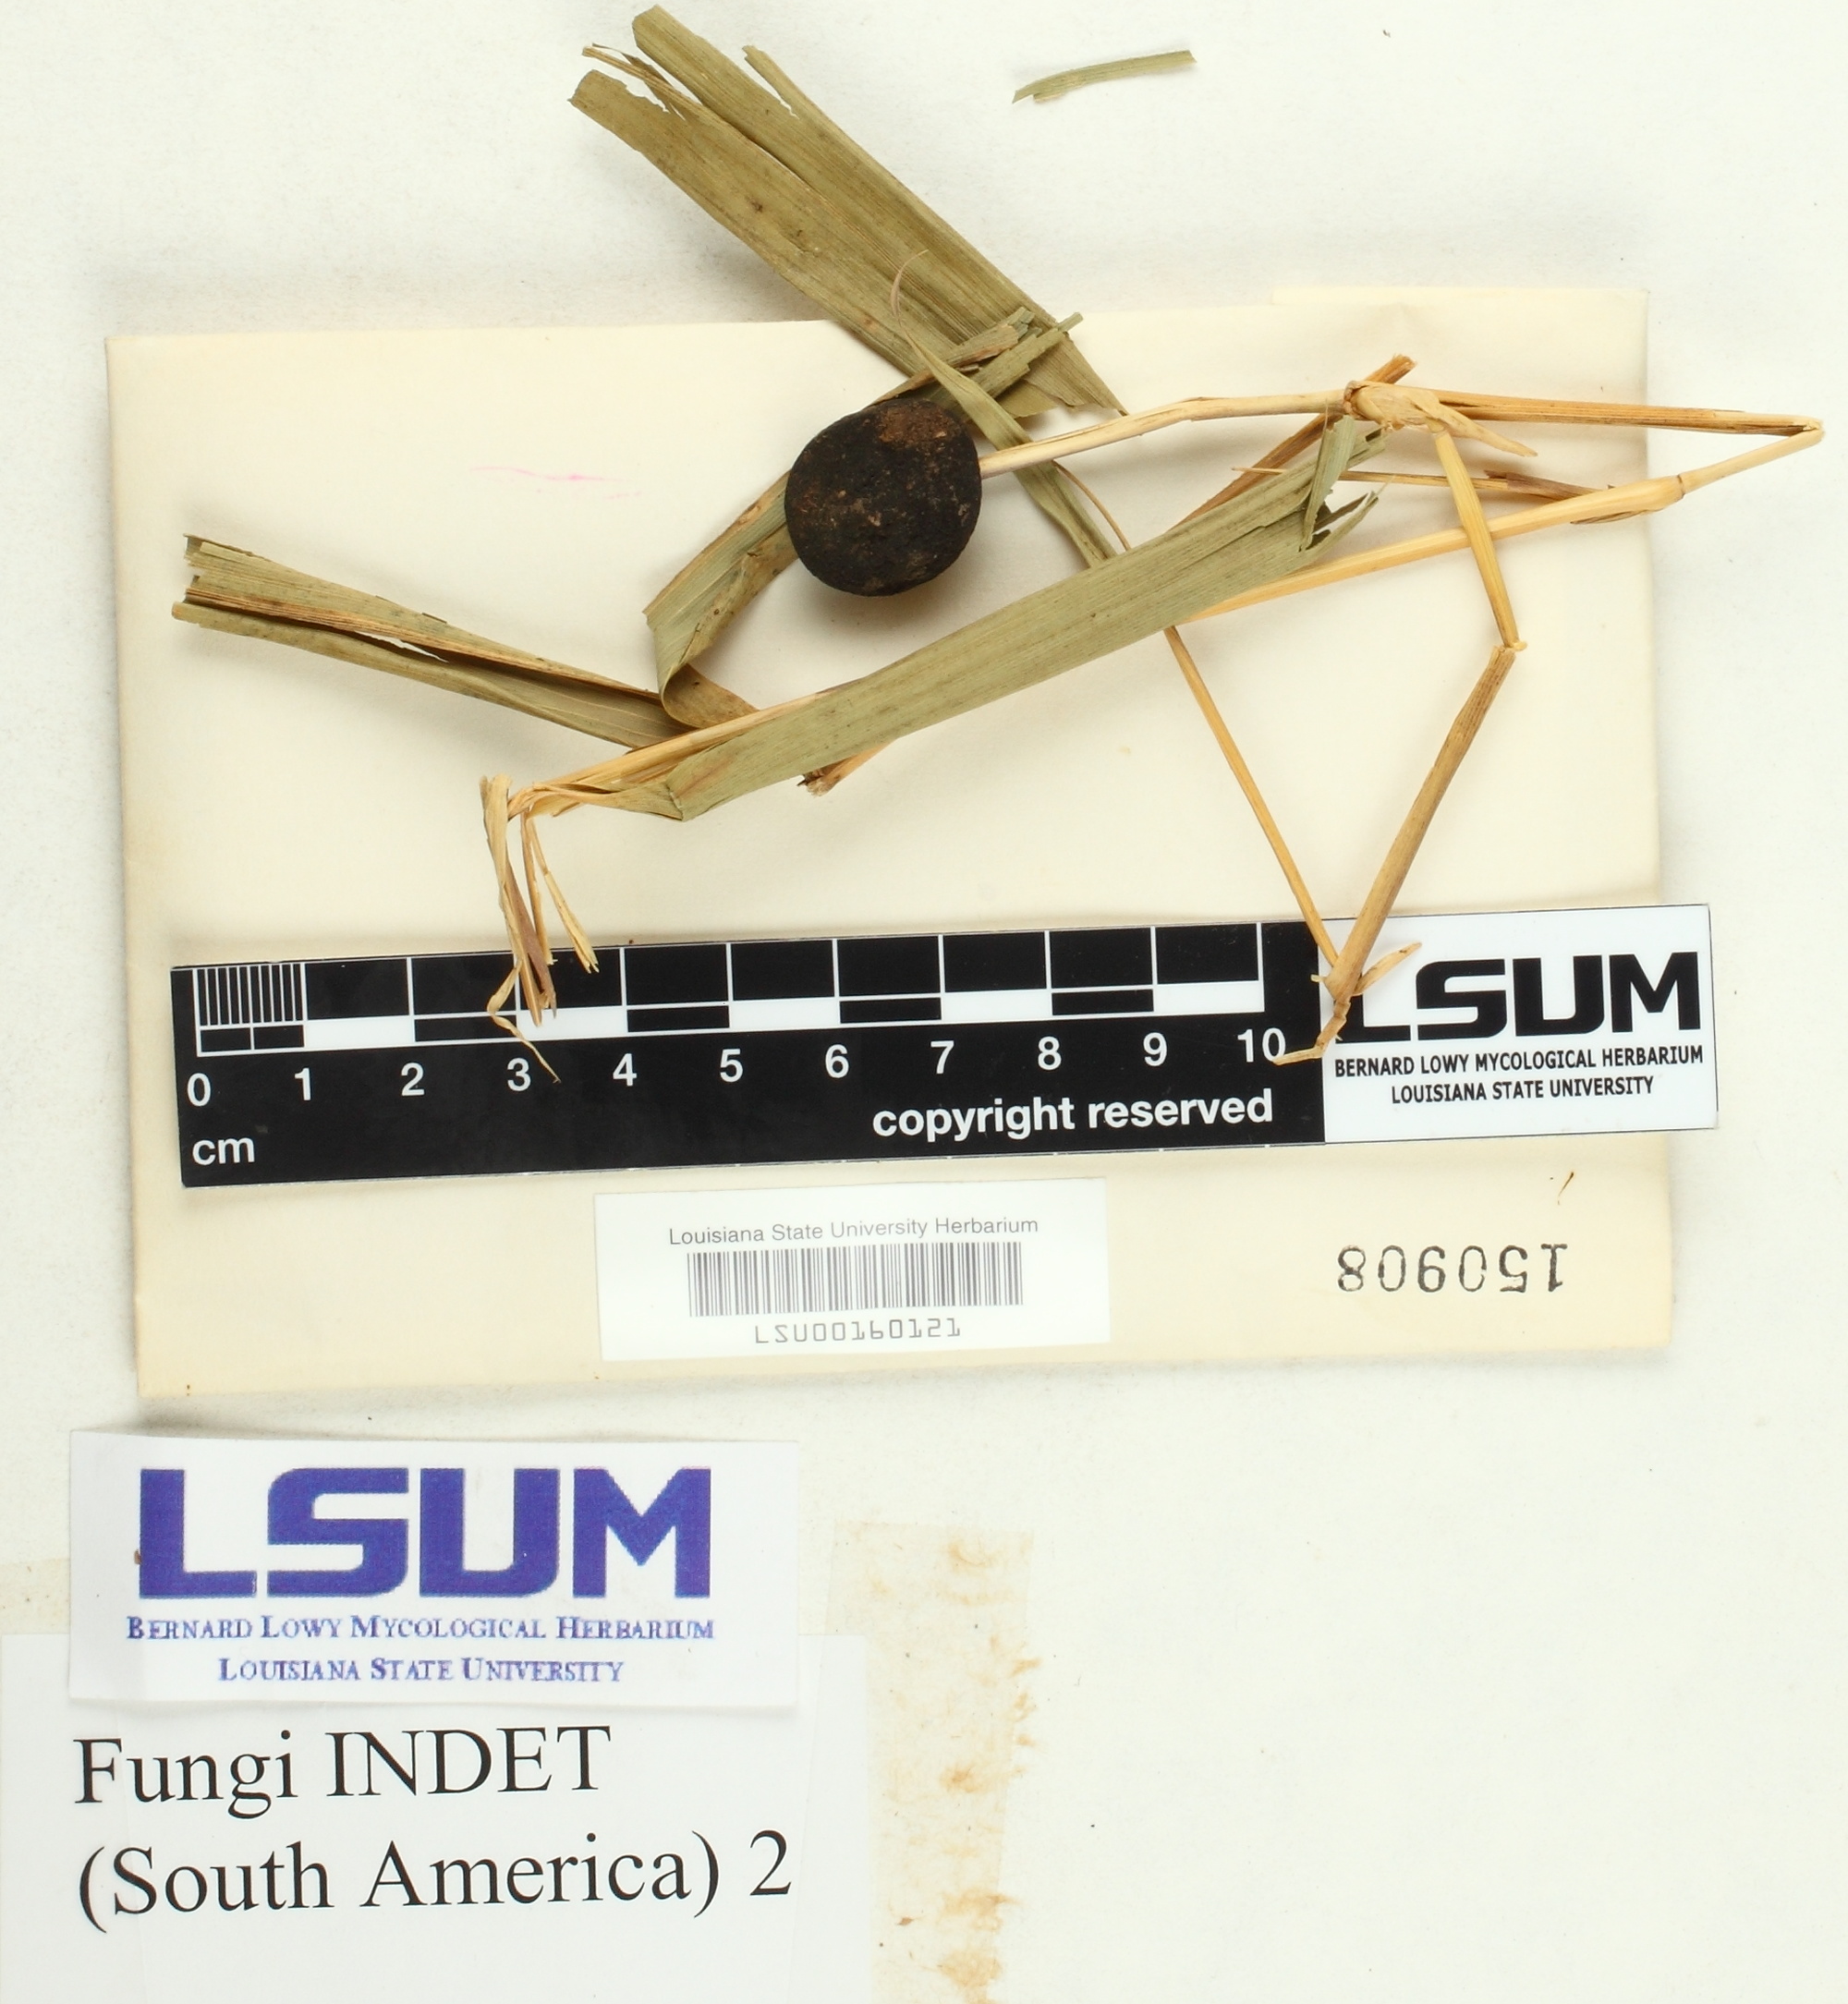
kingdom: Fungi
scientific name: Fungi
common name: Fungi
